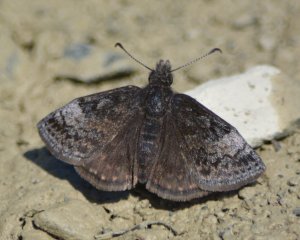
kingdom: Animalia
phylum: Arthropoda
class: Insecta
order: Lepidoptera
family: Hesperiidae
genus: Erynnis
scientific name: Erynnis icelus
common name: Dreamy Duskywing
